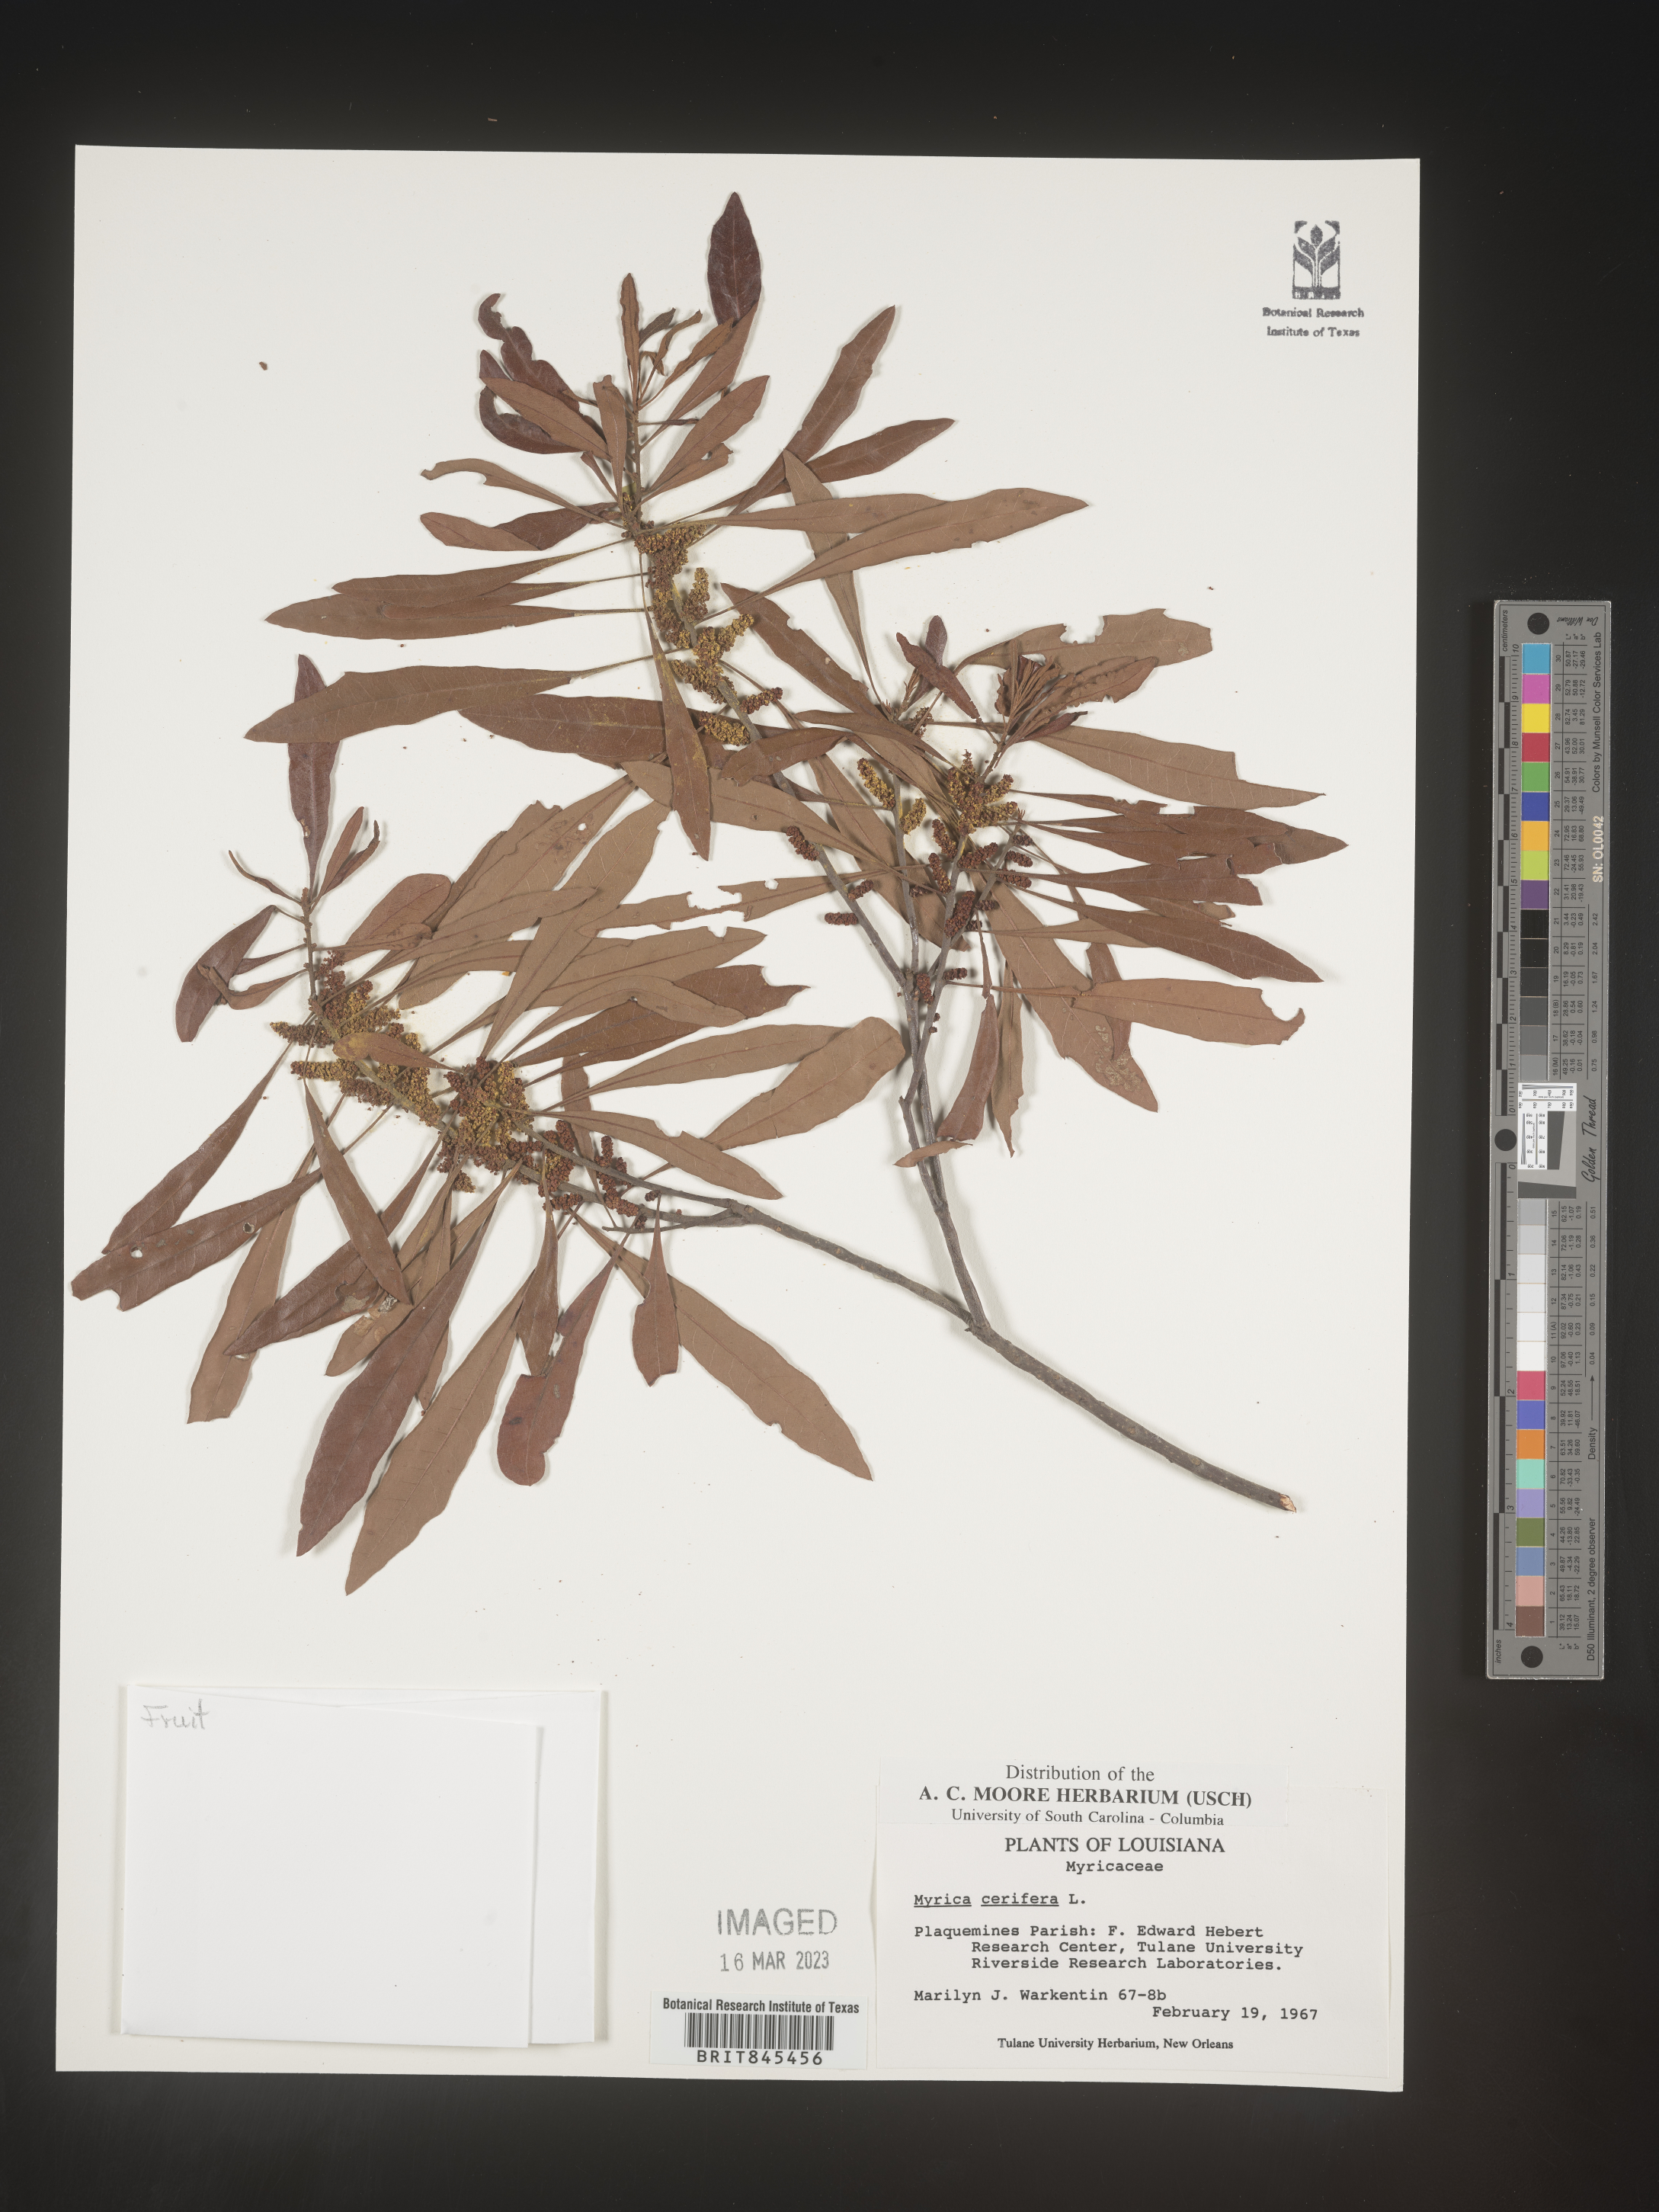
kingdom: Plantae
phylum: Tracheophyta
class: Magnoliopsida
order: Fagales
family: Myricaceae
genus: Morella
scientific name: Morella cerifera
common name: Wax myrtle
